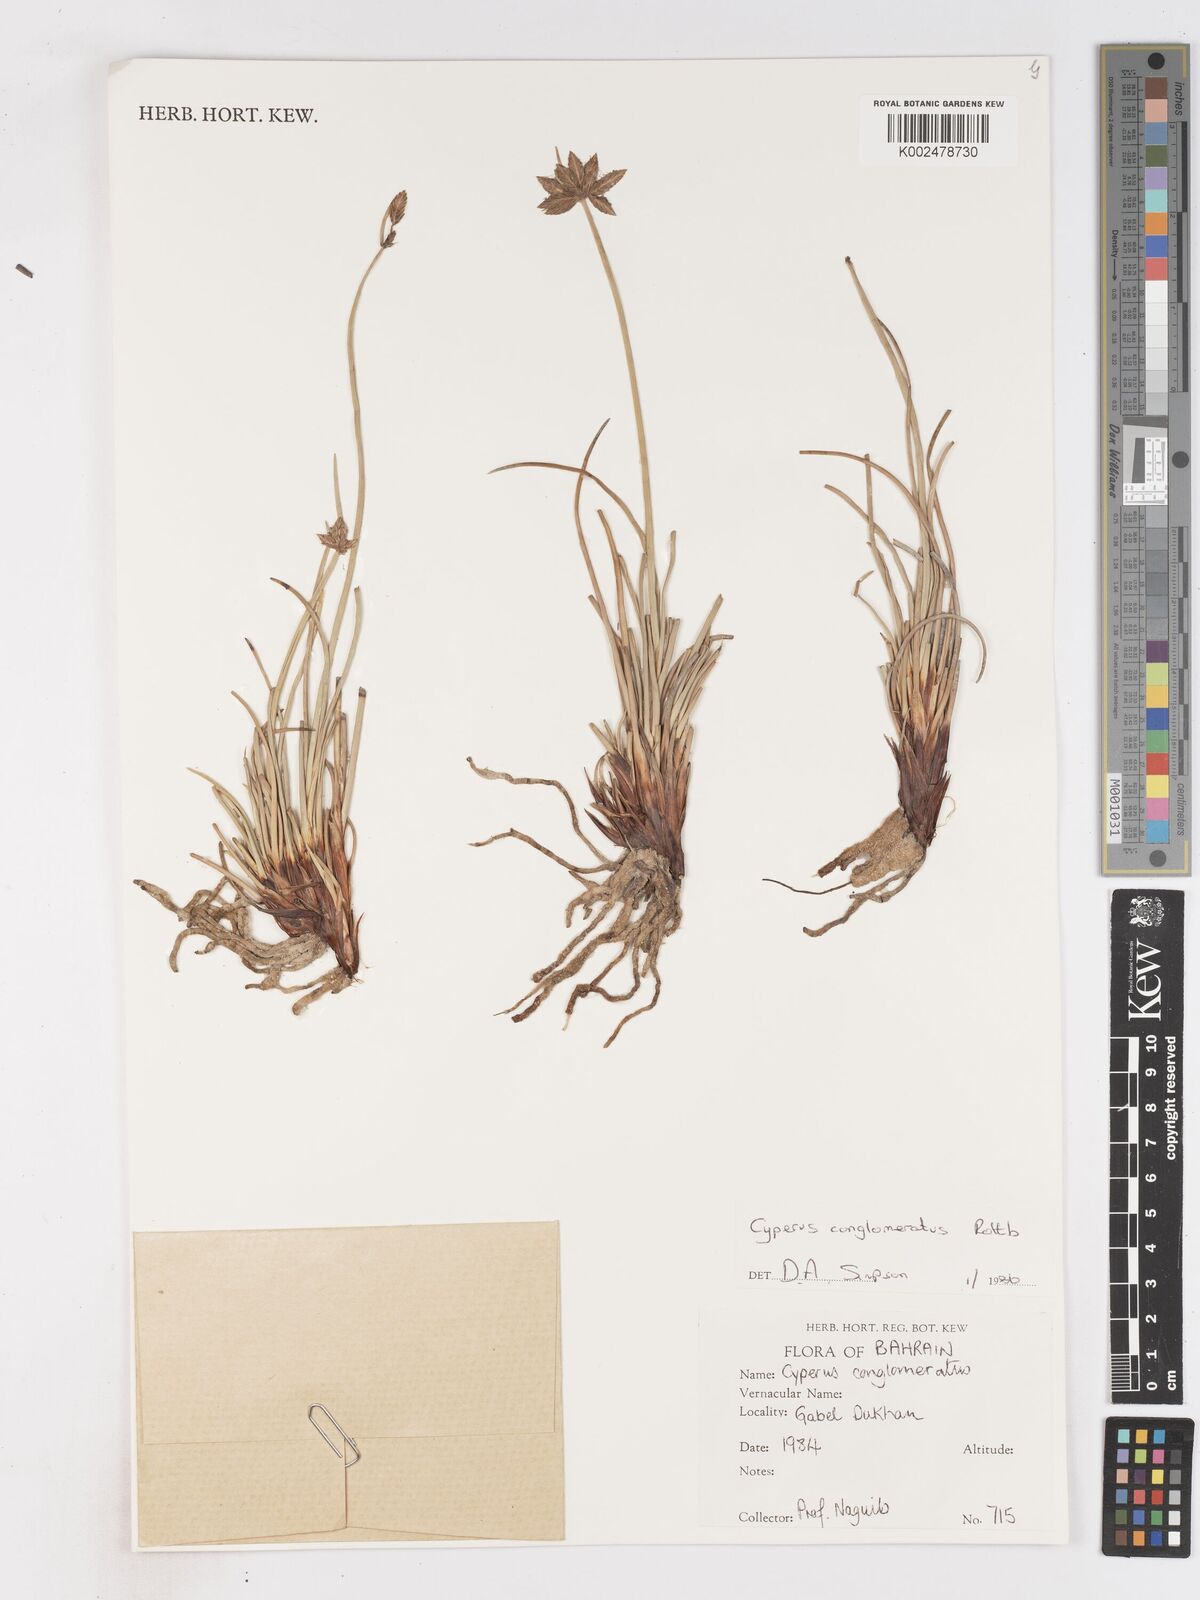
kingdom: Plantae
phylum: Tracheophyta
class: Liliopsida
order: Poales
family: Cyperaceae
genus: Cyperus
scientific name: Cyperus conglomeratus
